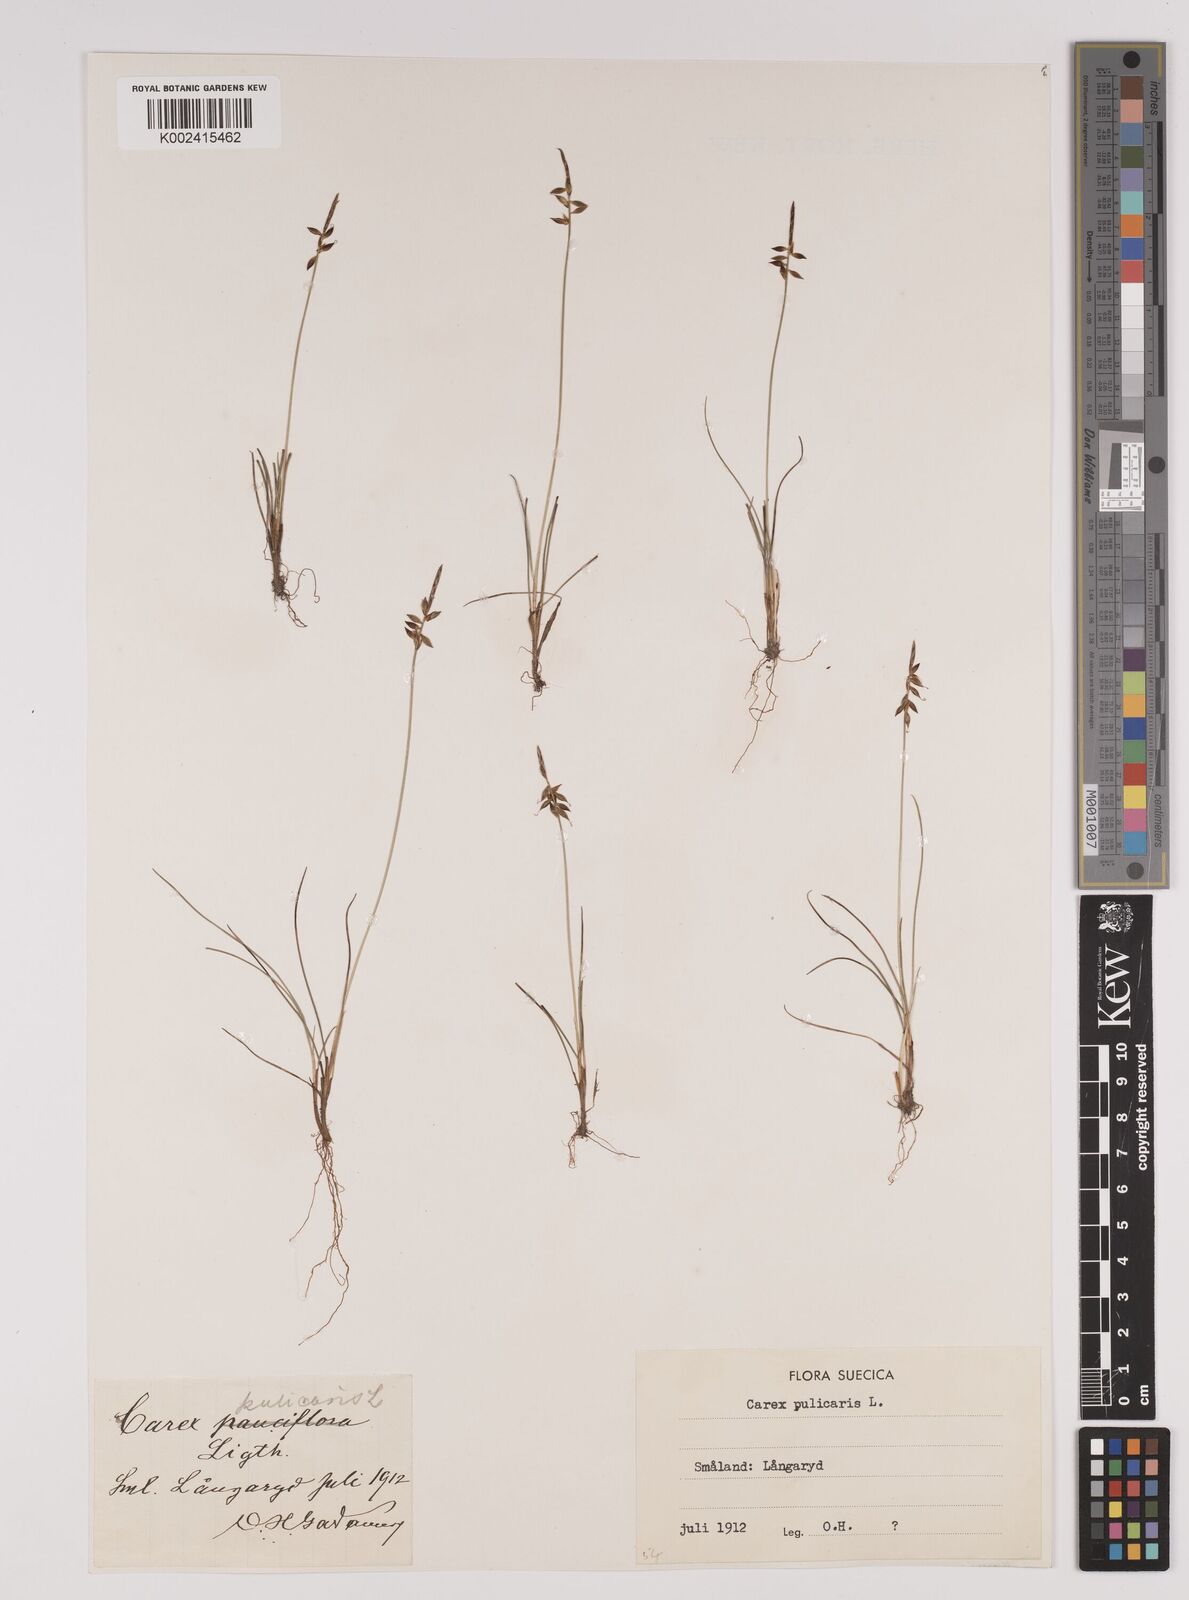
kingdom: Plantae
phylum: Tracheophyta
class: Liliopsida
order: Poales
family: Cyperaceae
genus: Carex
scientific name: Carex pulicaris
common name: Flea sedge
